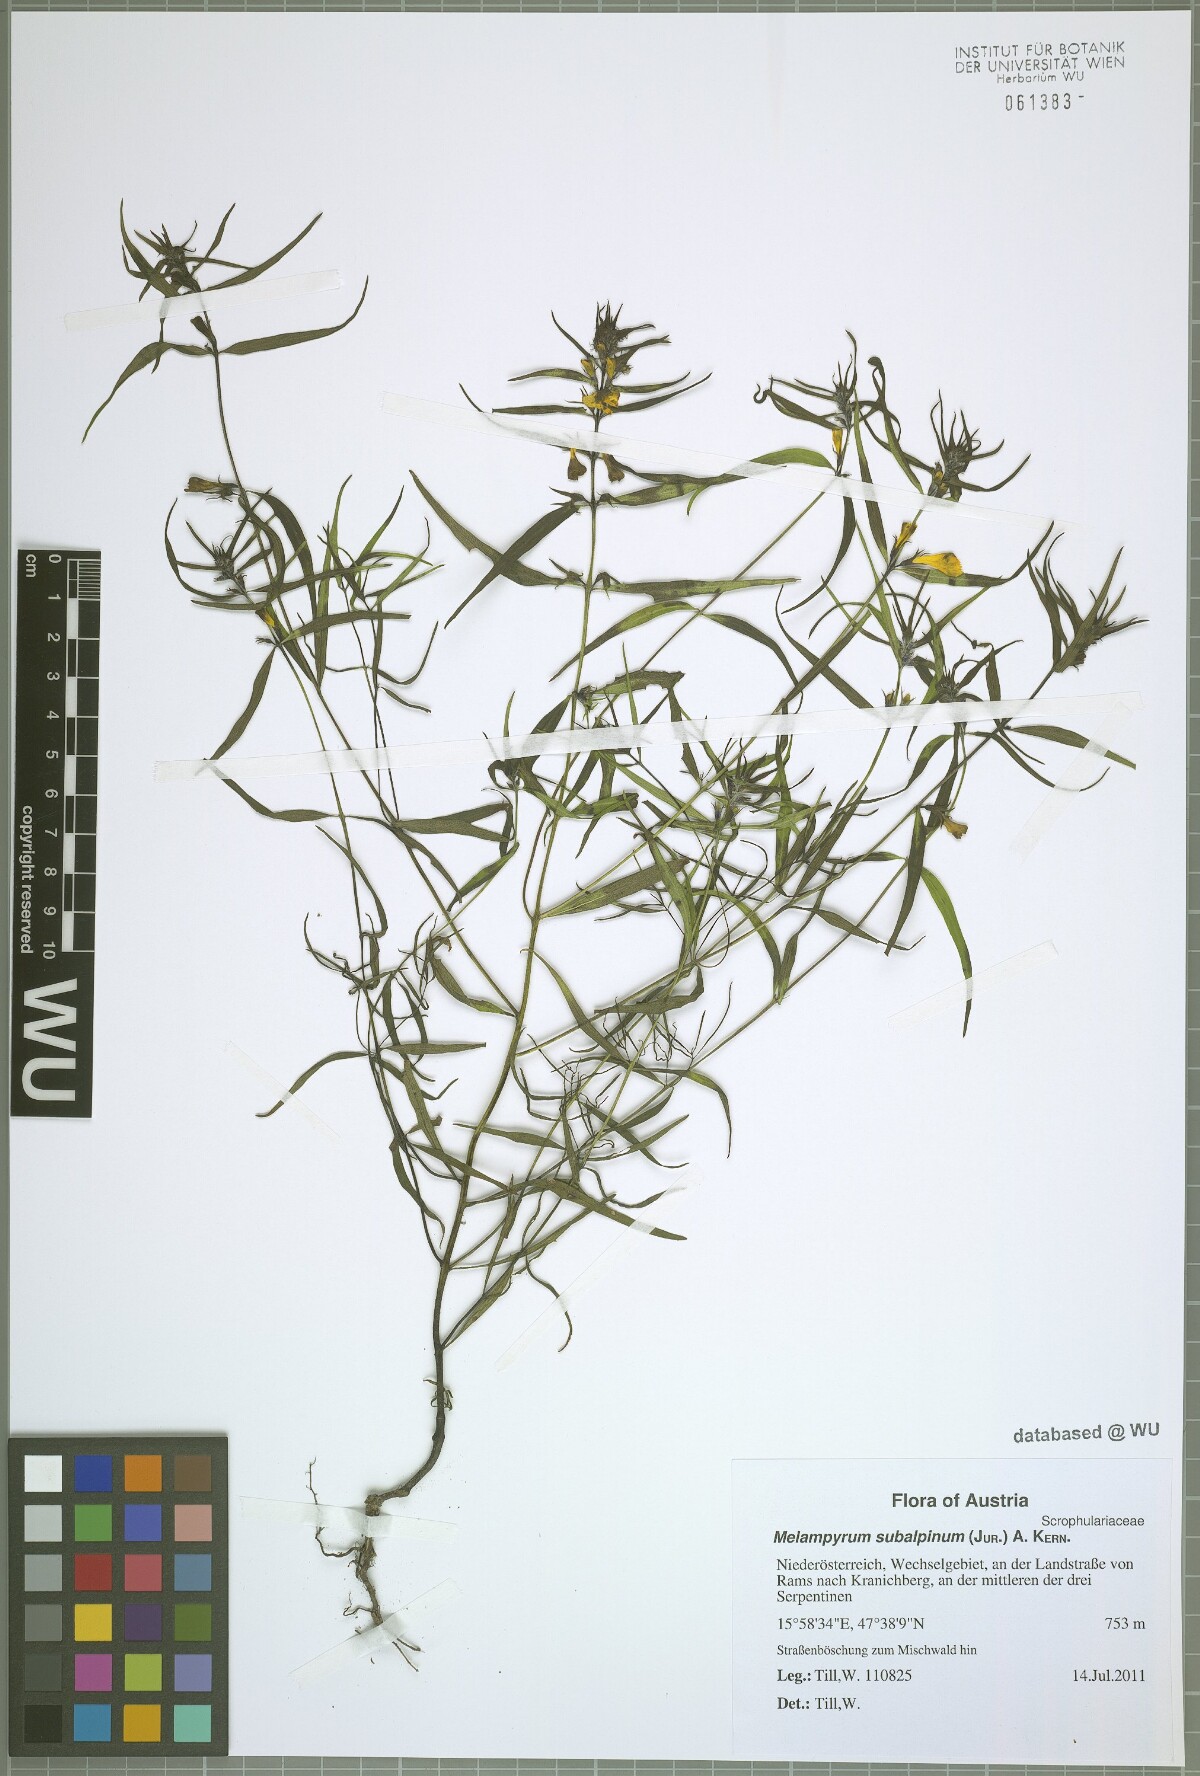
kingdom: Plantae
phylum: Tracheophyta
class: Magnoliopsida
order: Lamiales
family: Orobanchaceae
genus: Melampyrum
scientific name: Melampyrum subalpinum
